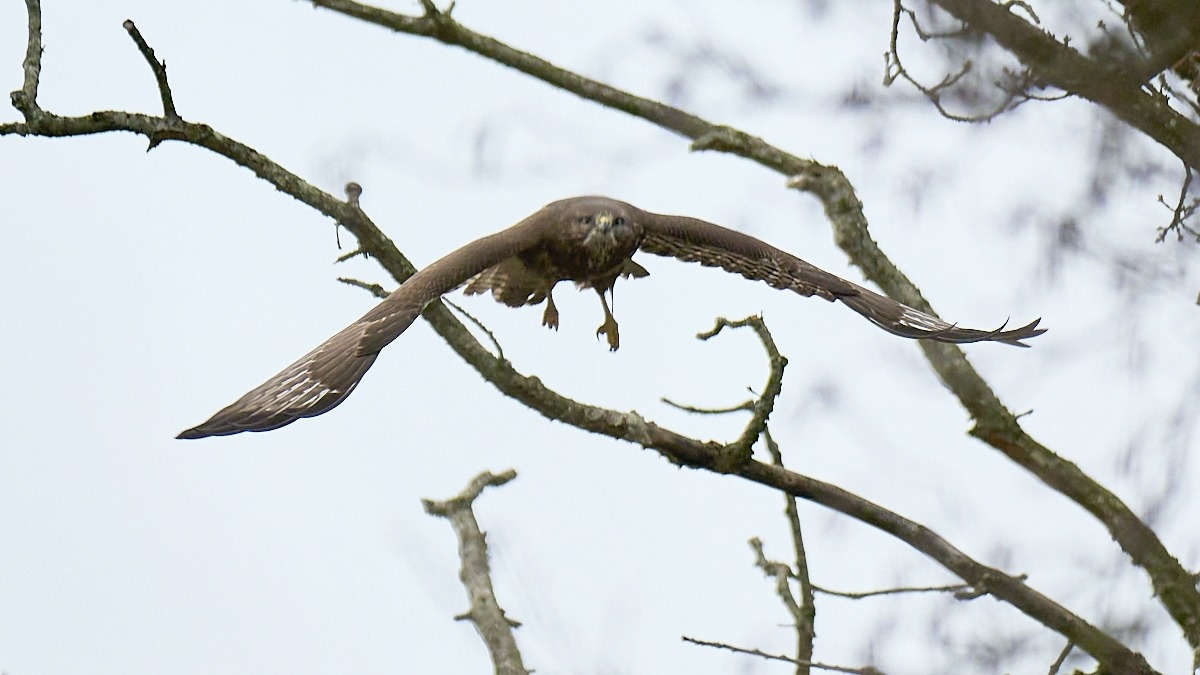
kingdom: Animalia
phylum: Chordata
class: Aves
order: Accipitriformes
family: Accipitridae
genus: Buteo
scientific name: Buteo buteo
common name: Musvåge
